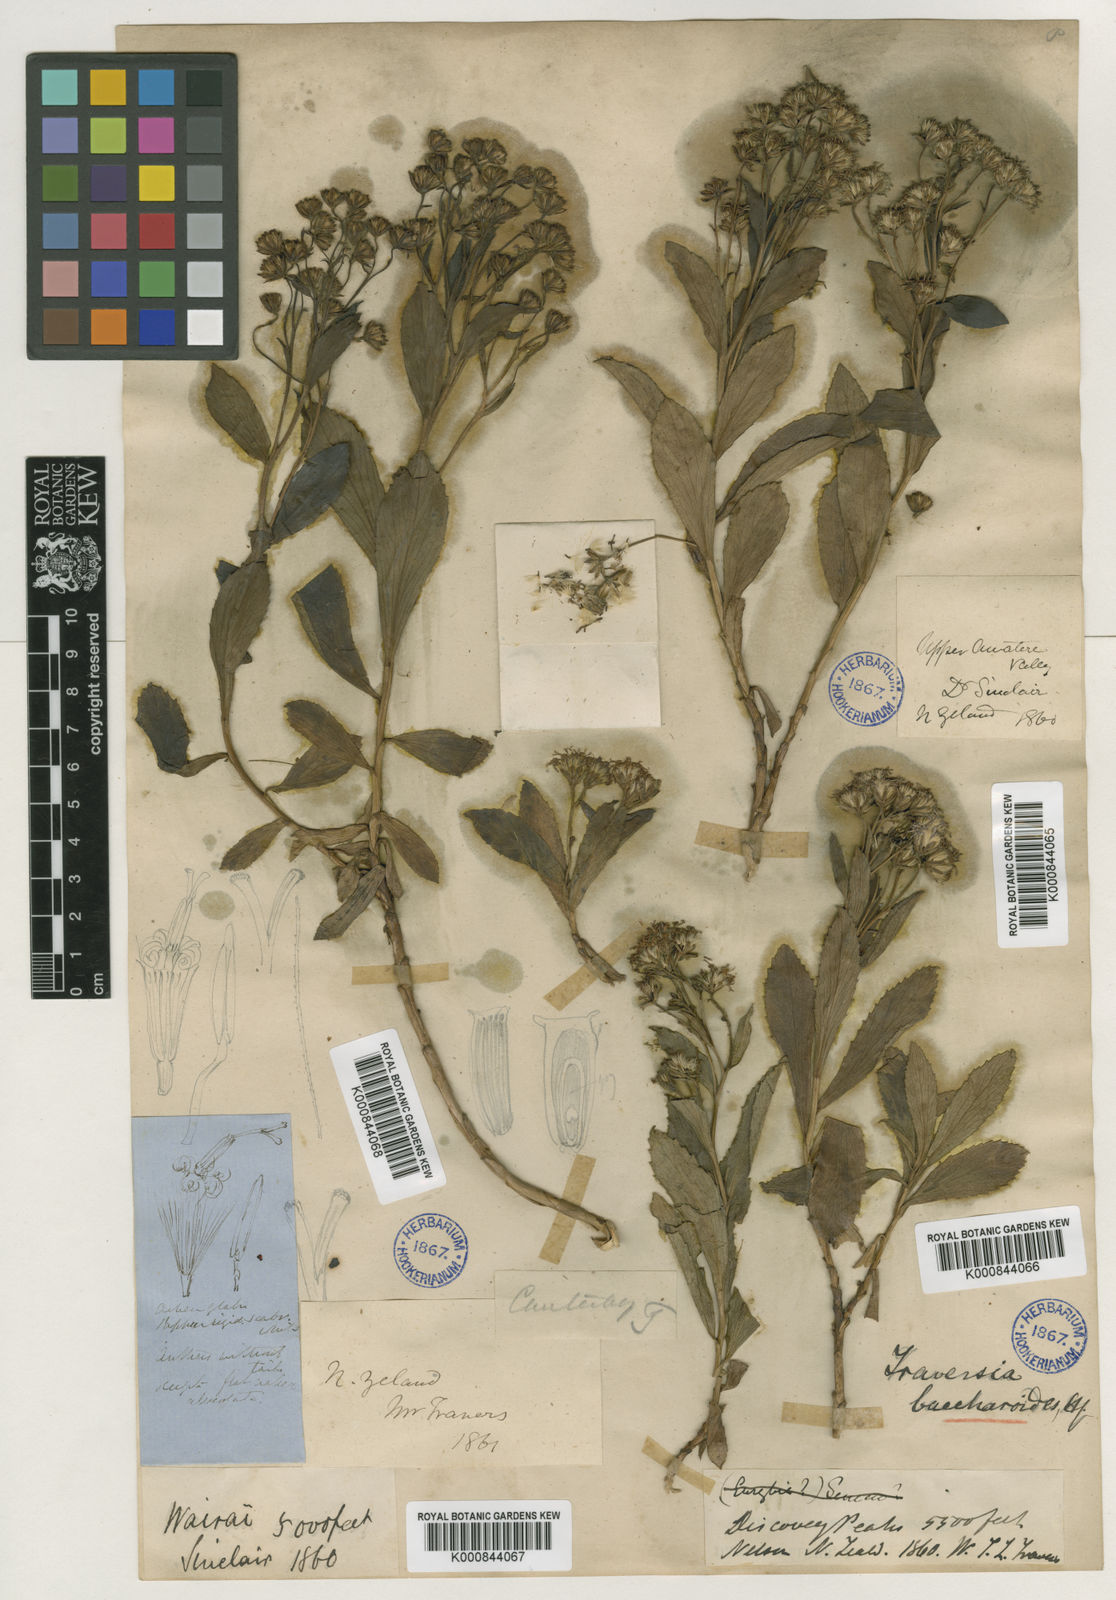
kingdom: Plantae
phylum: Tracheophyta
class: Magnoliopsida
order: Asterales
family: Asteraceae
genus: Traversia
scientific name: Traversia
